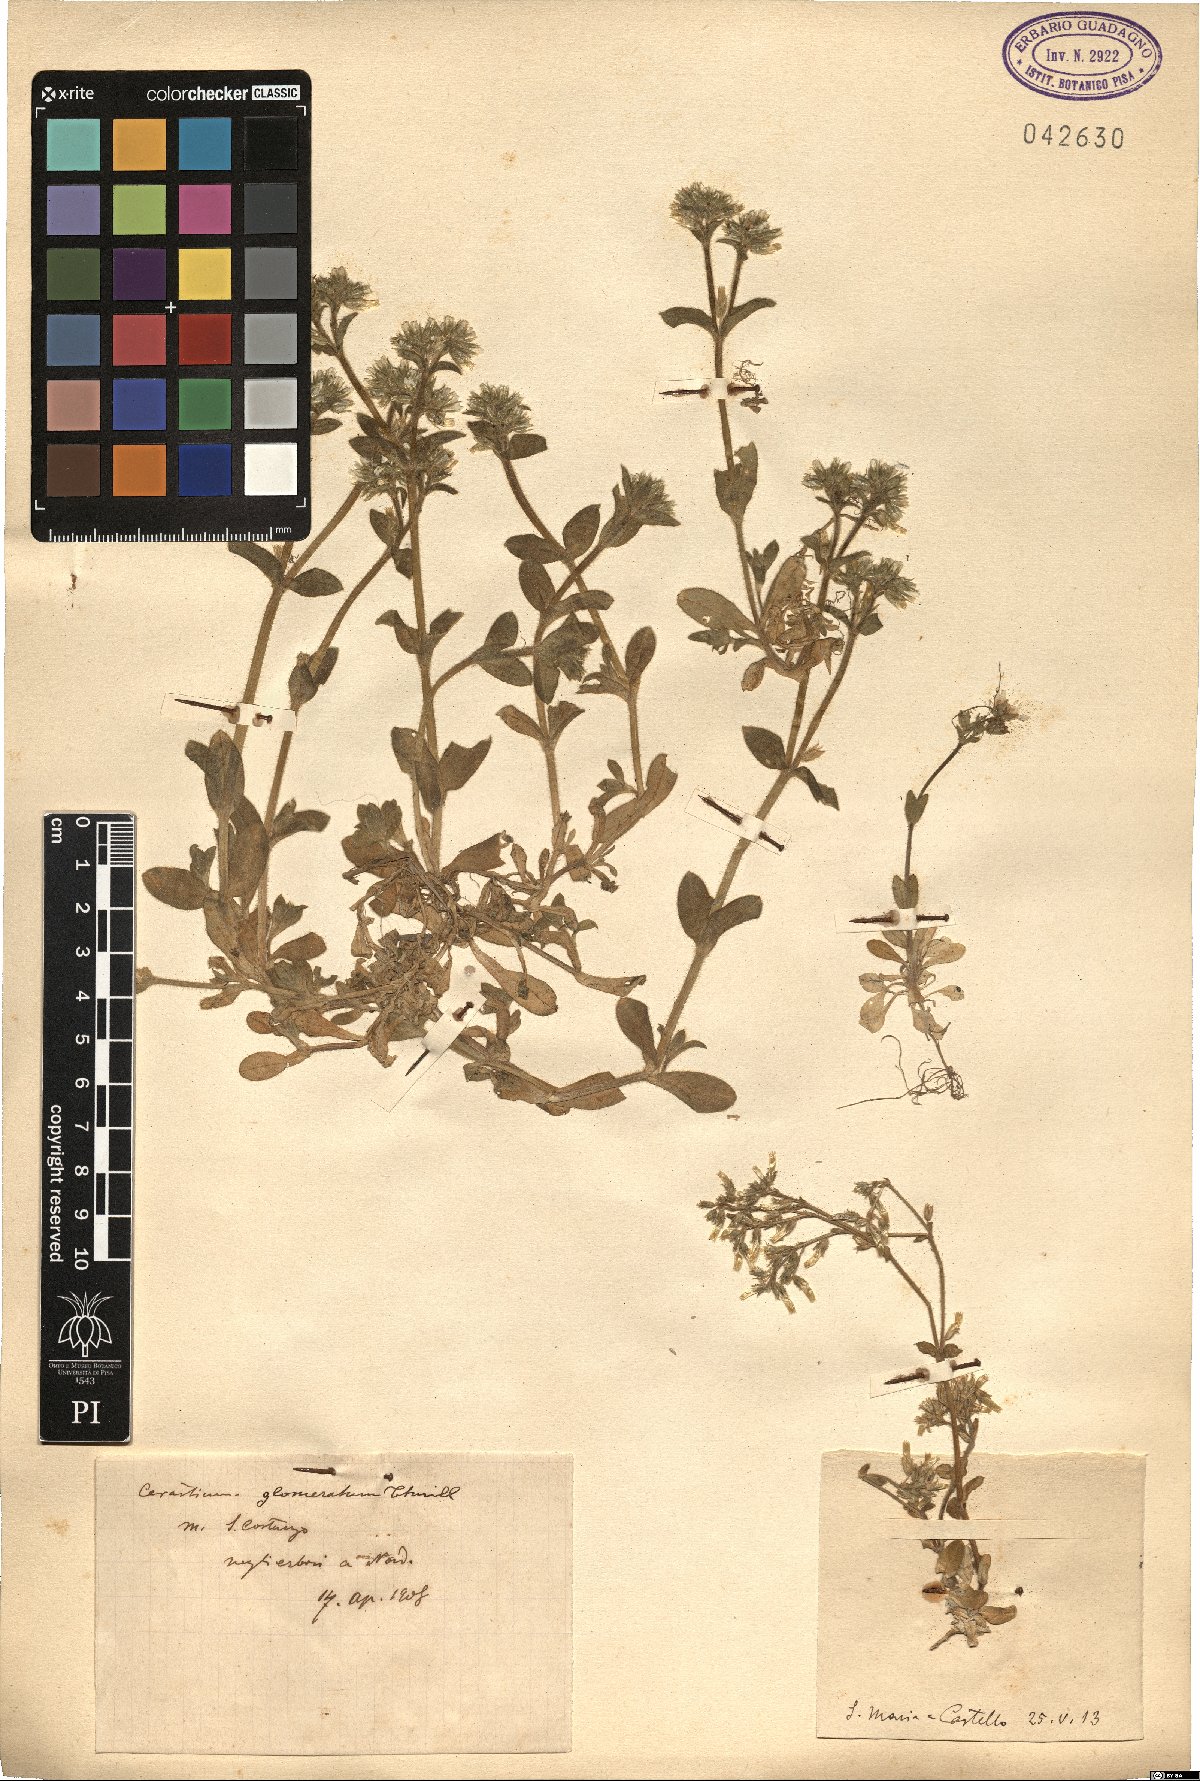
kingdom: Plantae
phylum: Tracheophyta
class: Magnoliopsida
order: Caryophyllales
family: Caryophyllaceae
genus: Cerastium
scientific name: Cerastium
